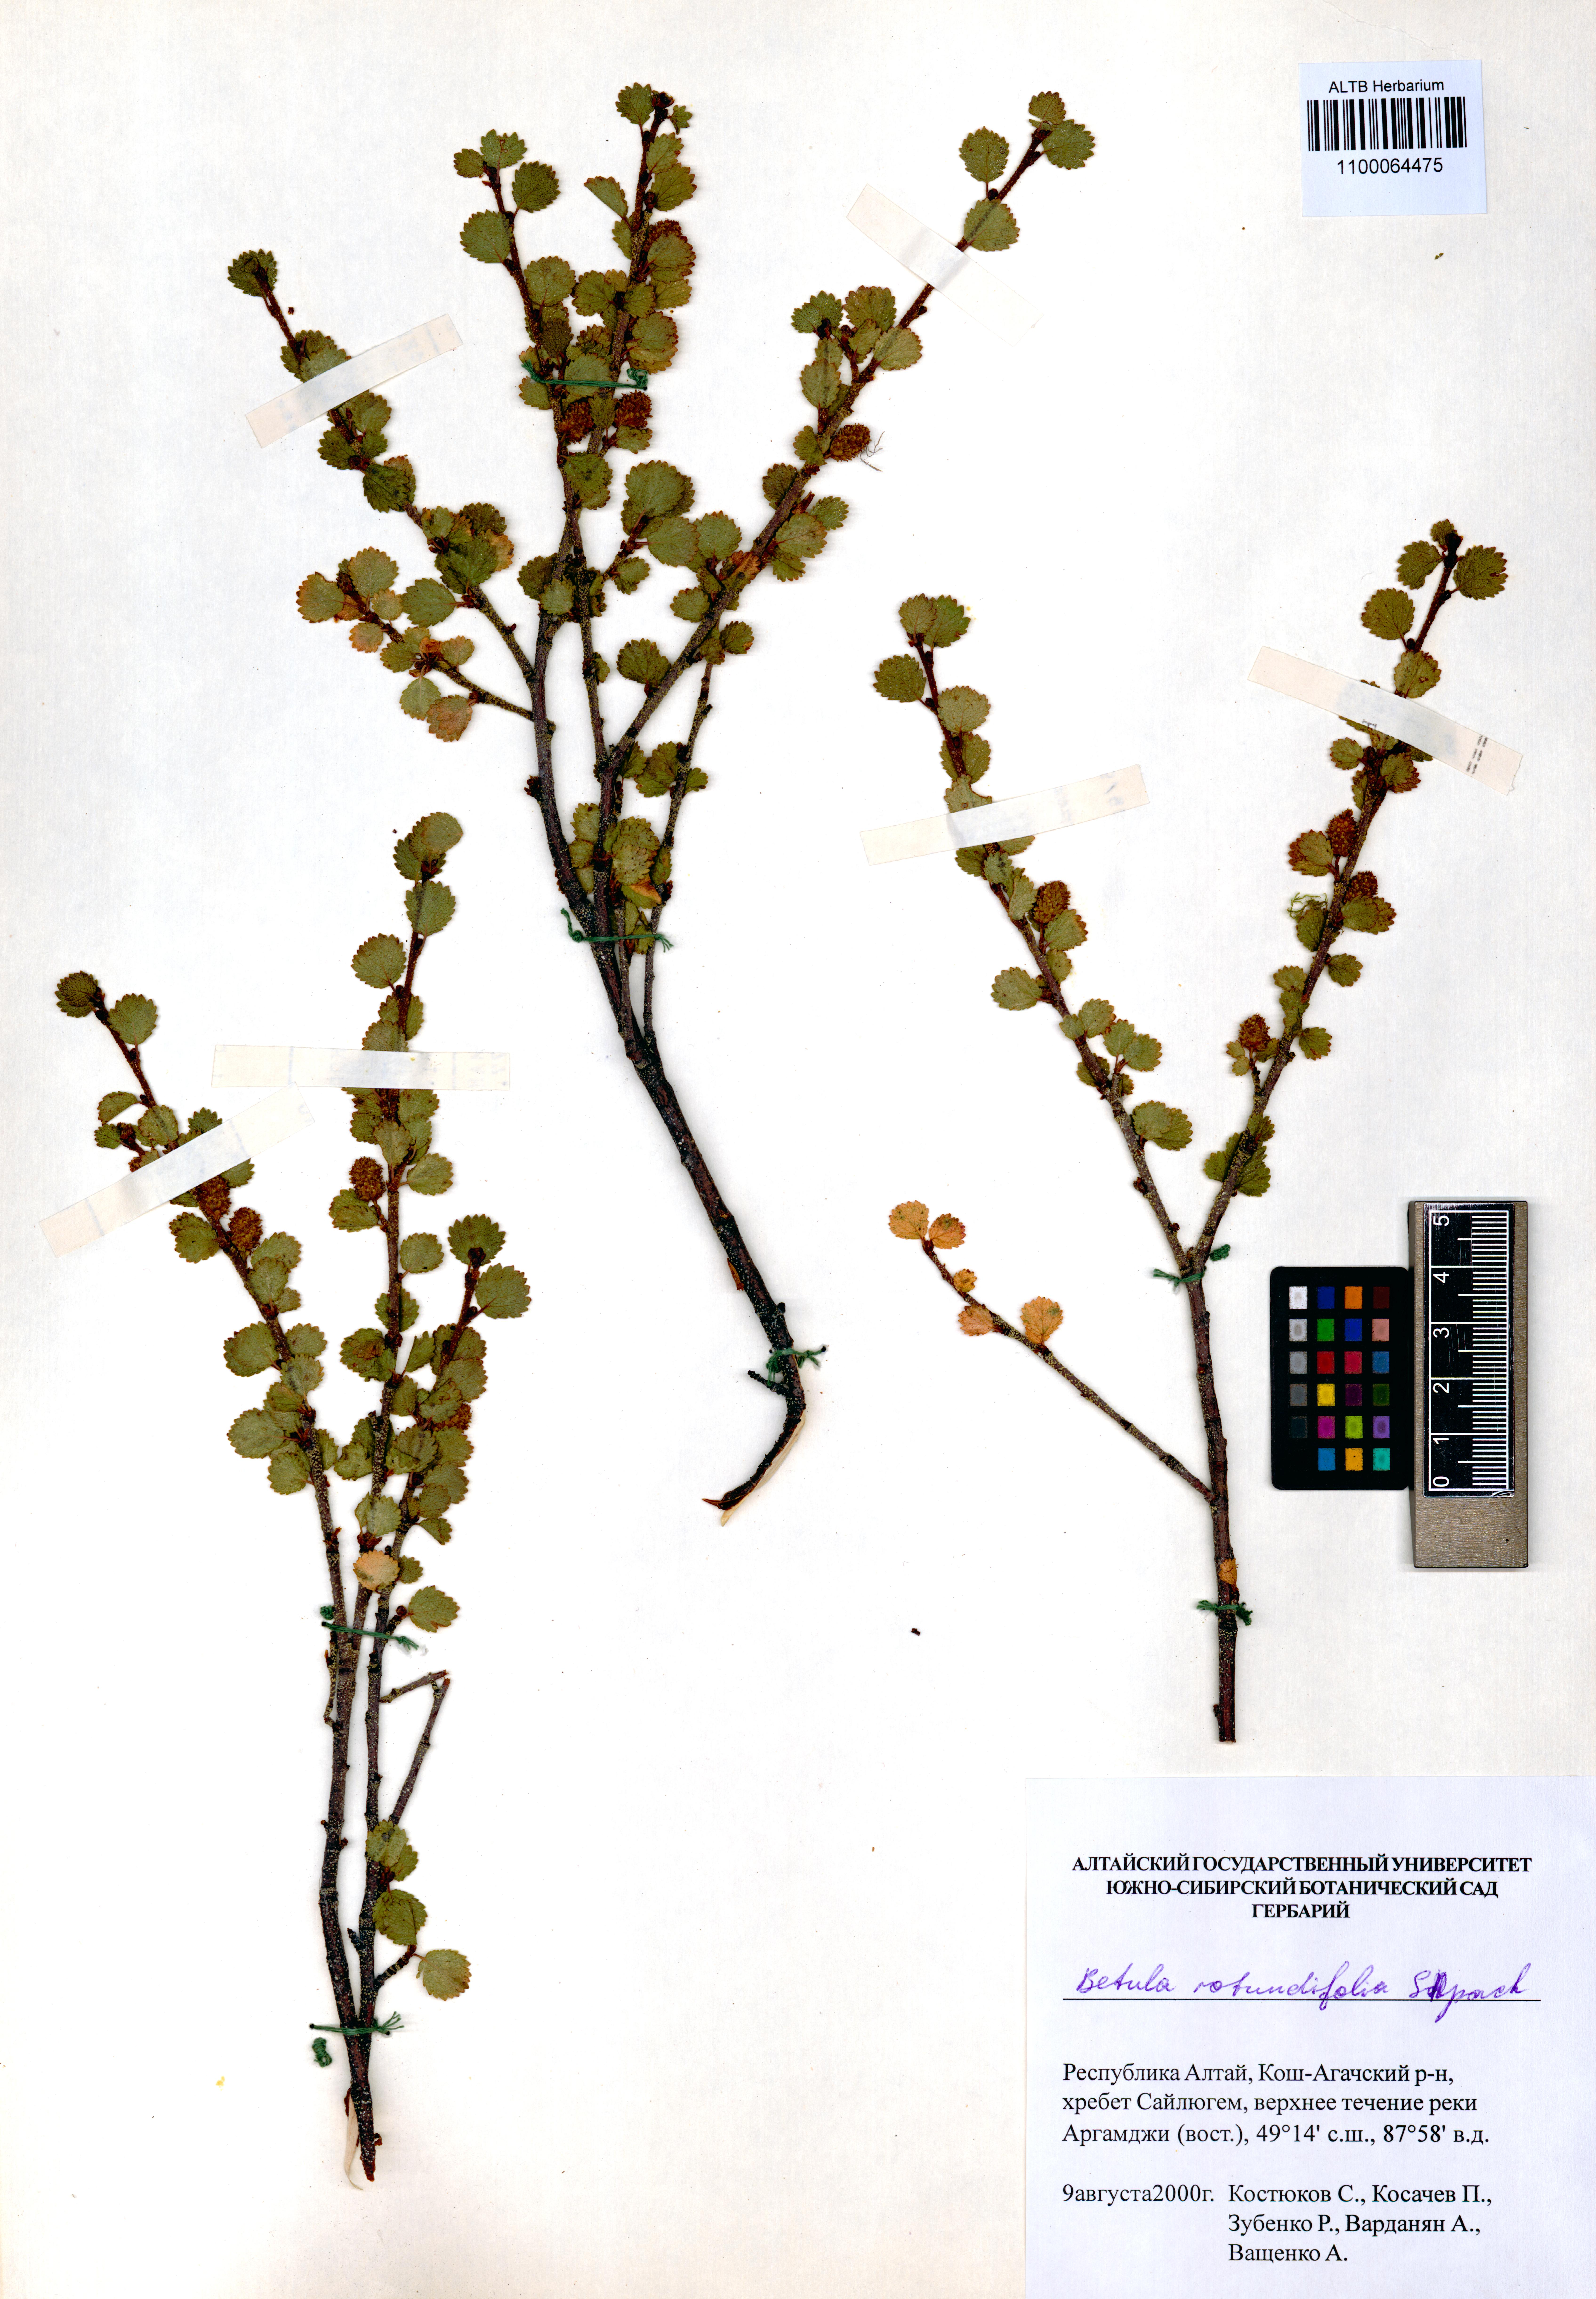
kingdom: Plantae
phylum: Tracheophyta
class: Magnoliopsida
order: Fagales
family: Betulaceae
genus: Betula
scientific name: Betula glandulosa
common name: Dwarf birch
